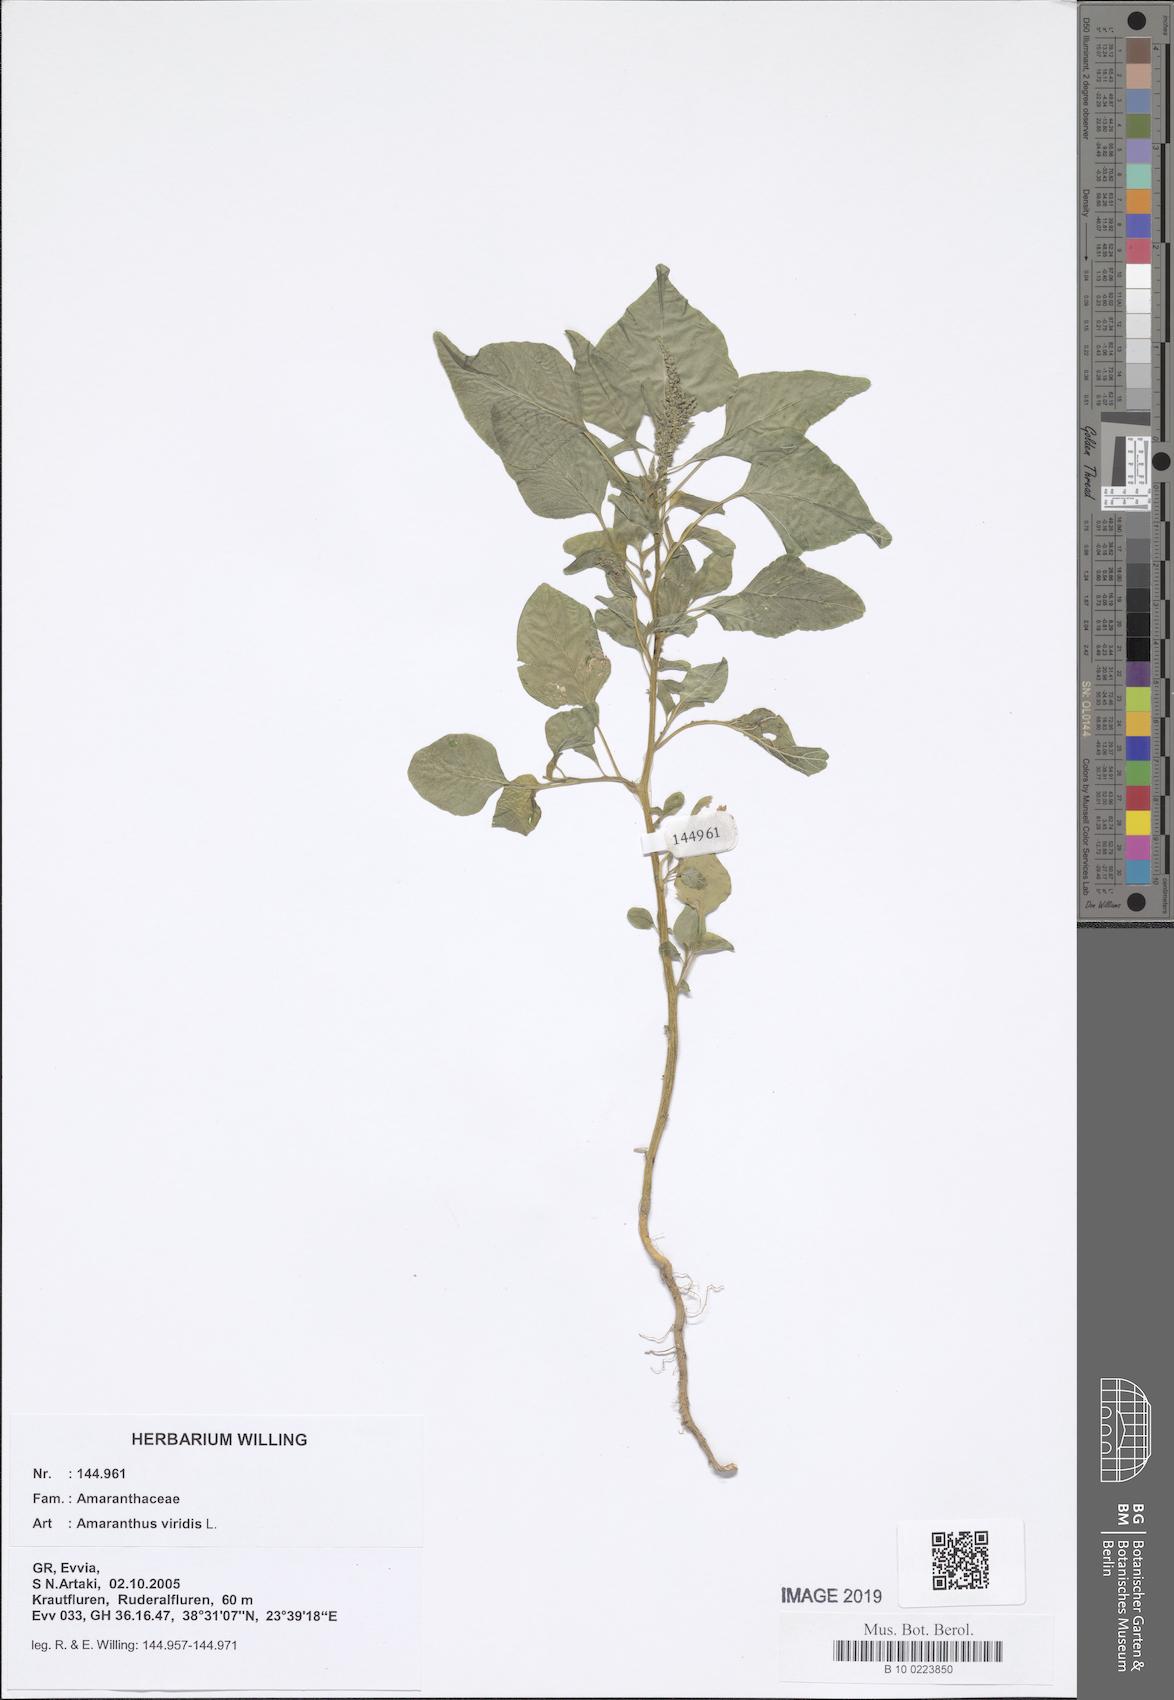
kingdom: Plantae
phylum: Tracheophyta
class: Magnoliopsida
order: Caryophyllales
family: Amaranthaceae
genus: Amaranthus
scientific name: Amaranthus viridis
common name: Slender amaranth
